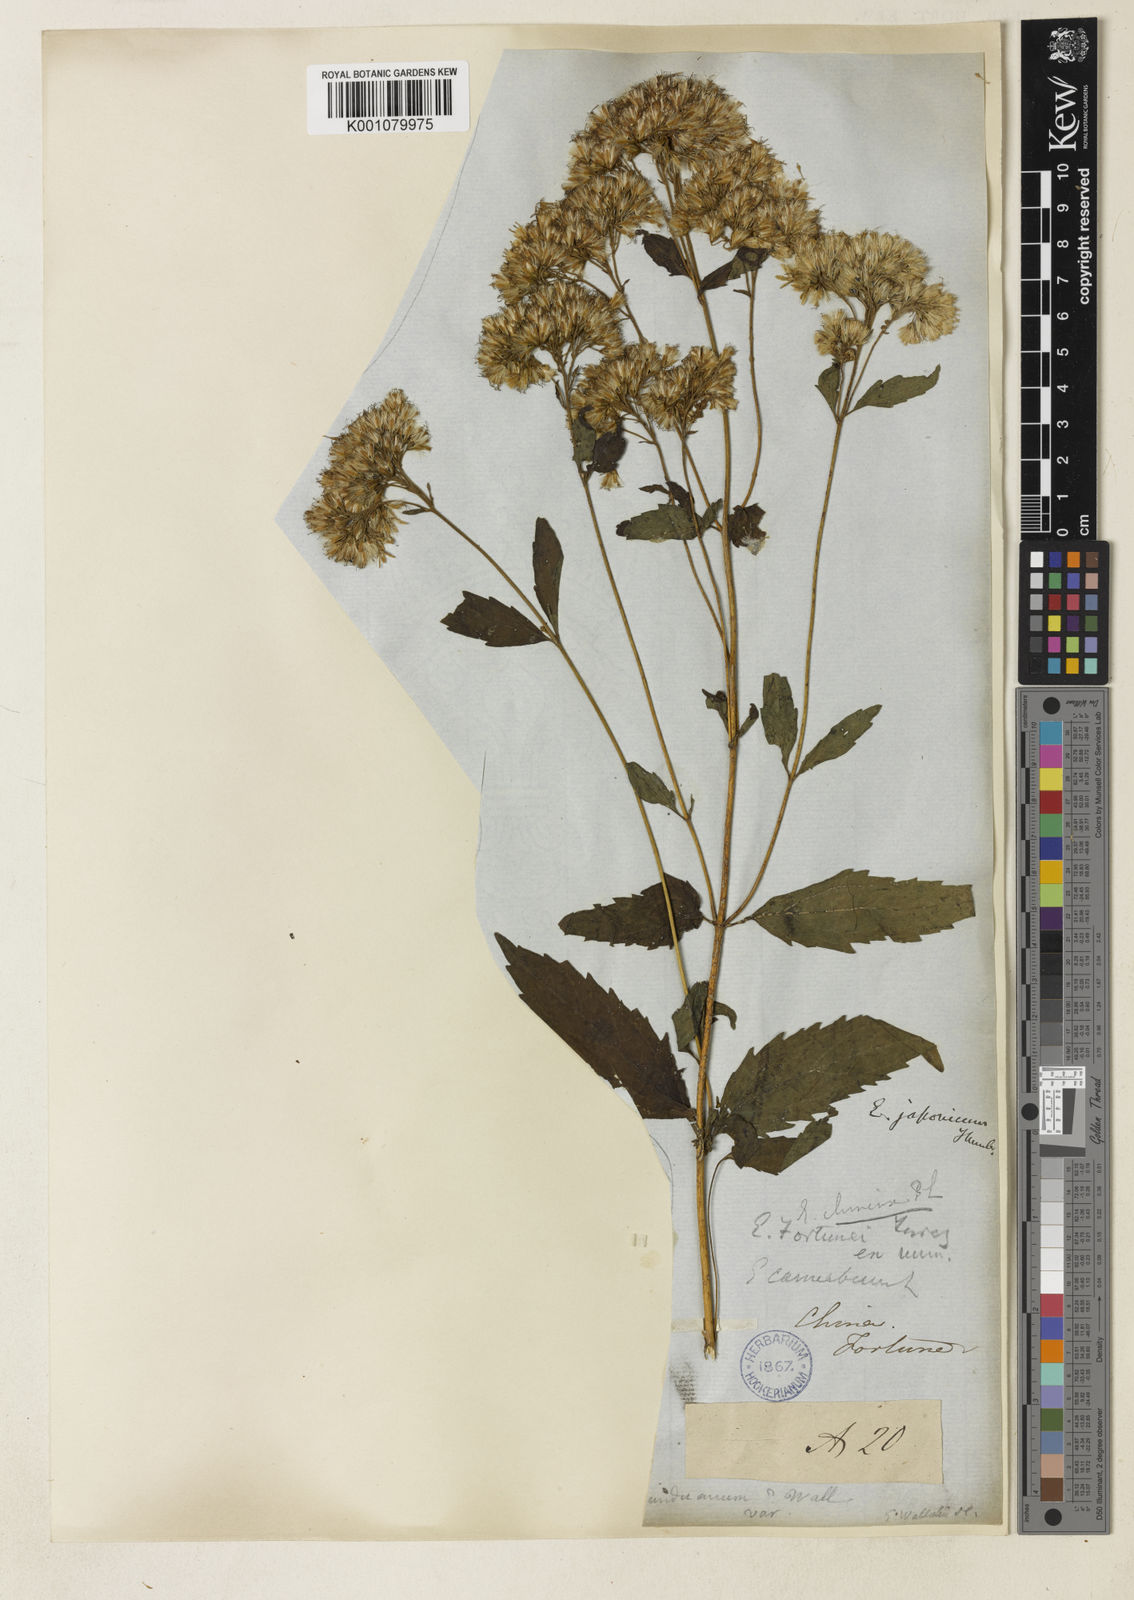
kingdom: Plantae
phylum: Tracheophyta
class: Magnoliopsida
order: Asterales
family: Asteraceae
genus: Eupatorium
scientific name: Eupatorium japonicum
